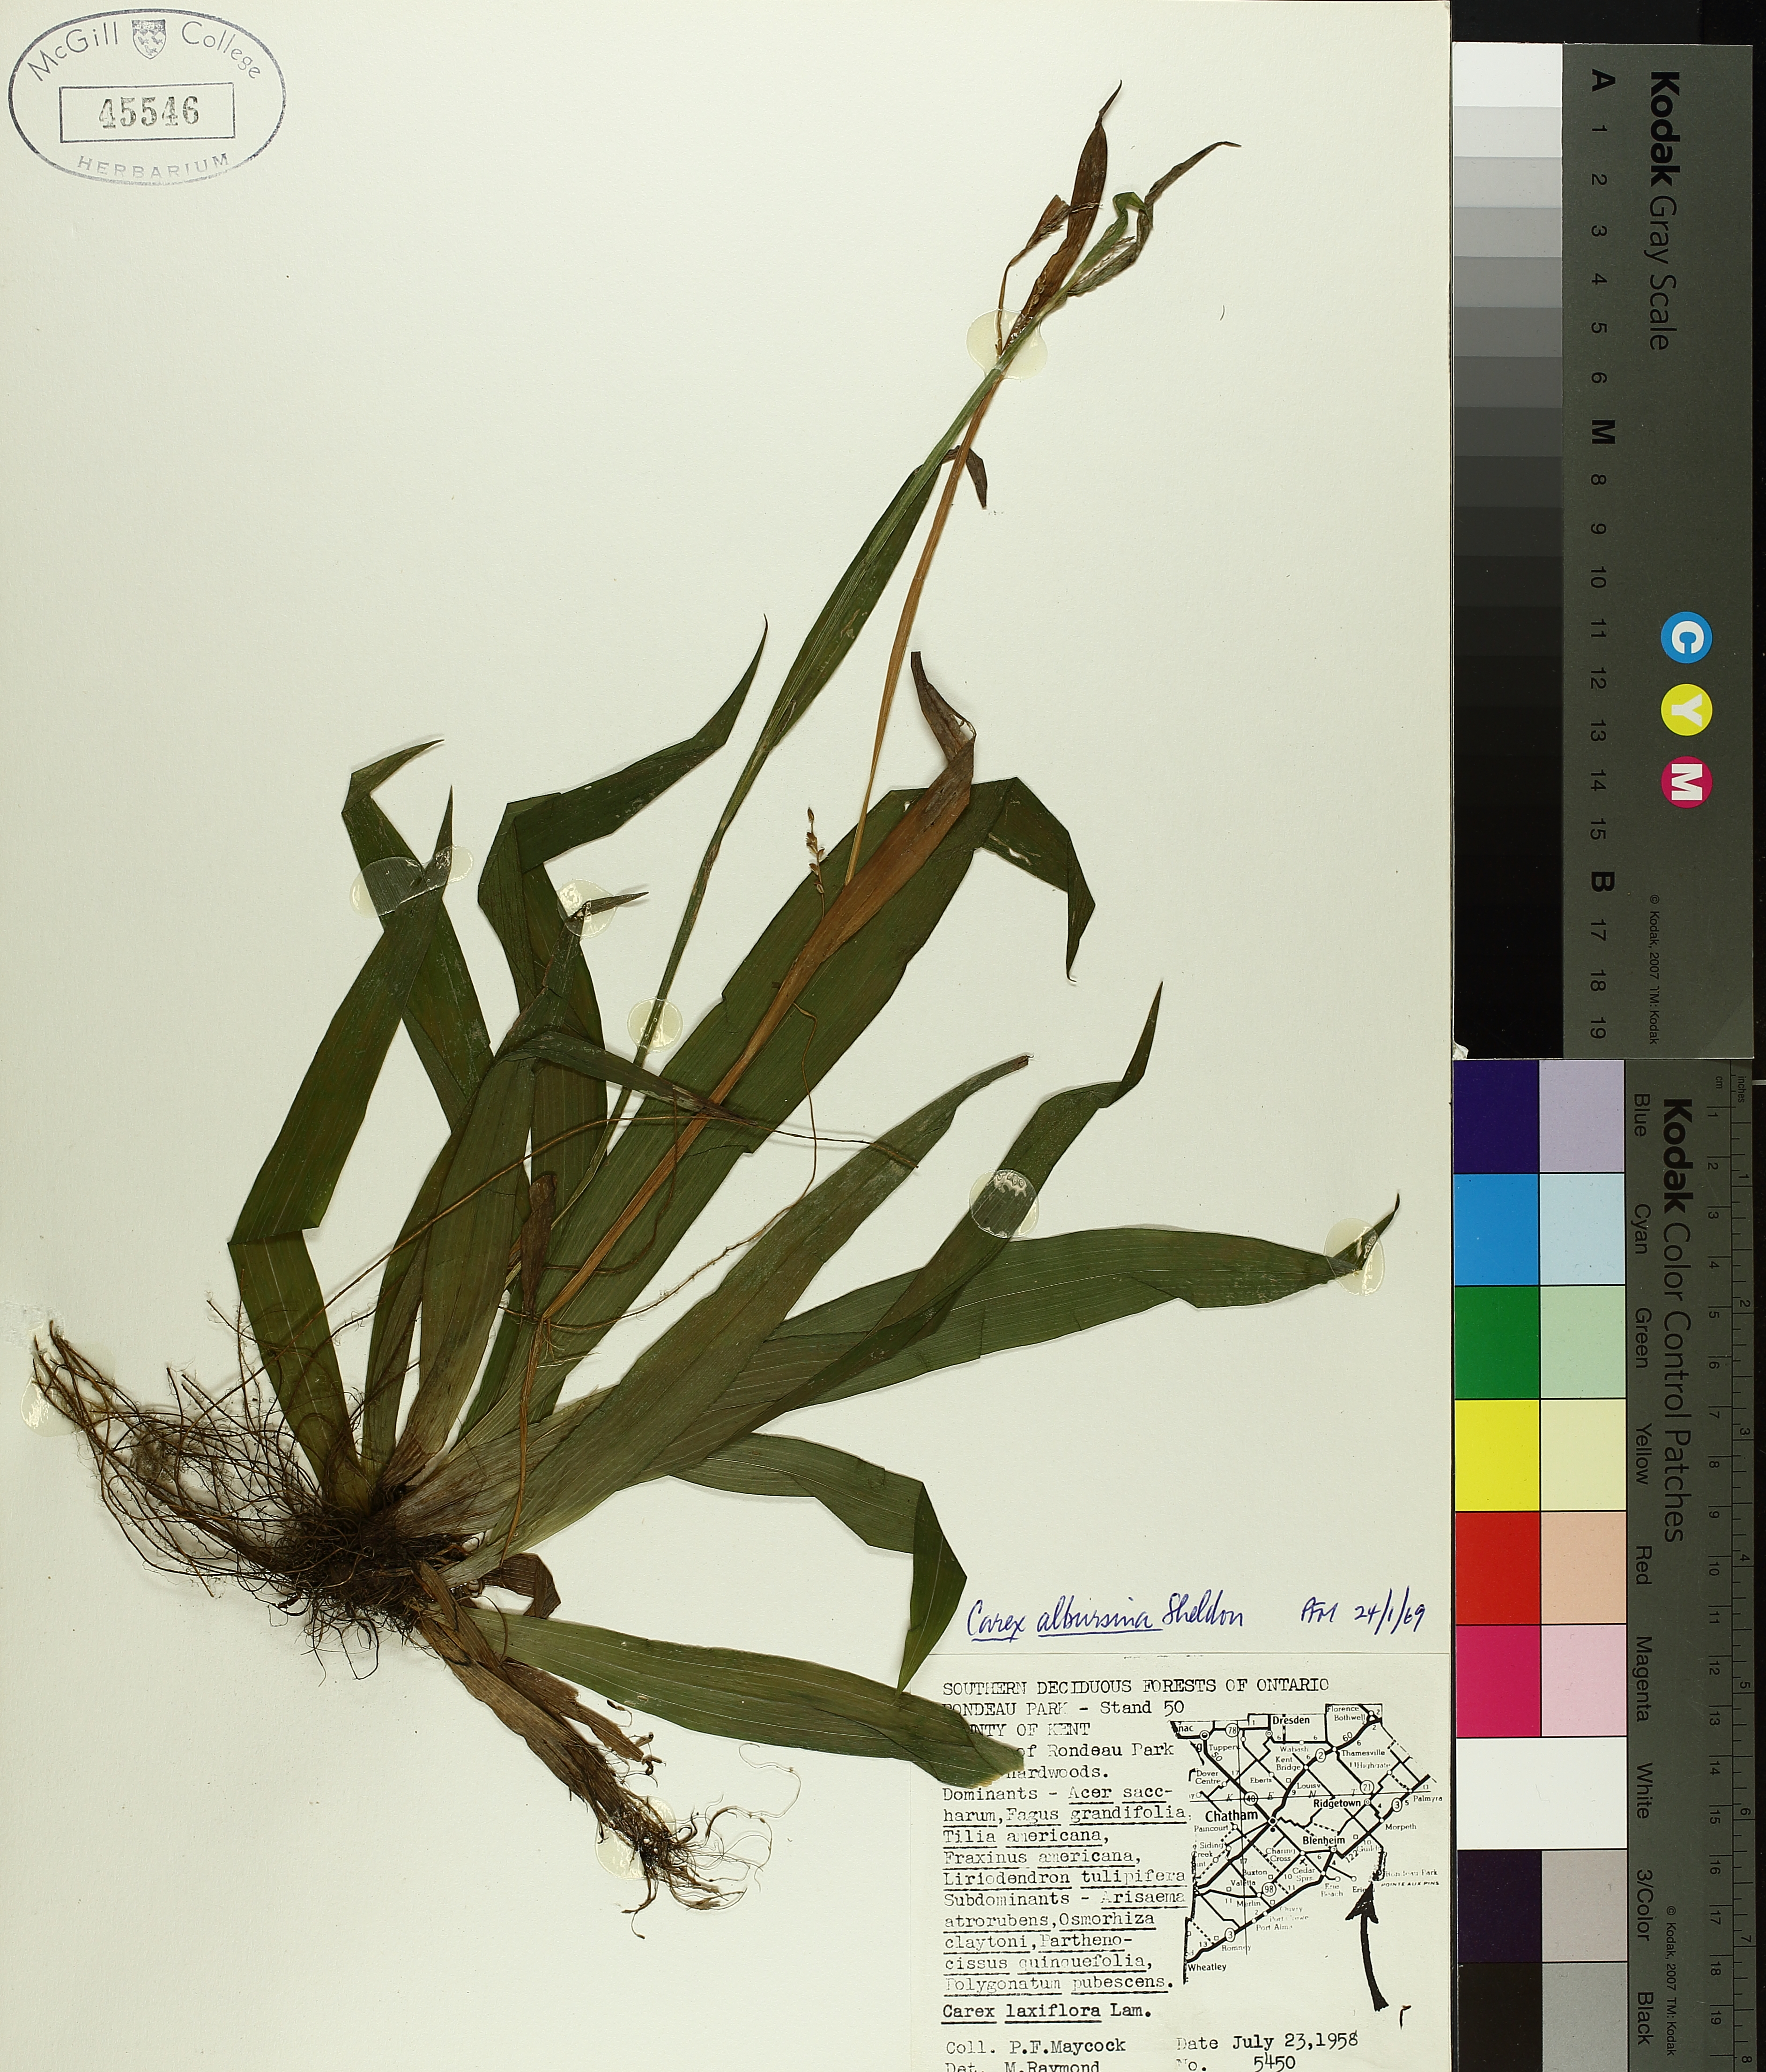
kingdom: Plantae
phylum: Tracheophyta
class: Liliopsida
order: Poales
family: Cyperaceae
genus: Carex
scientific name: Carex albursina
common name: Blunt-scale wood sedge
